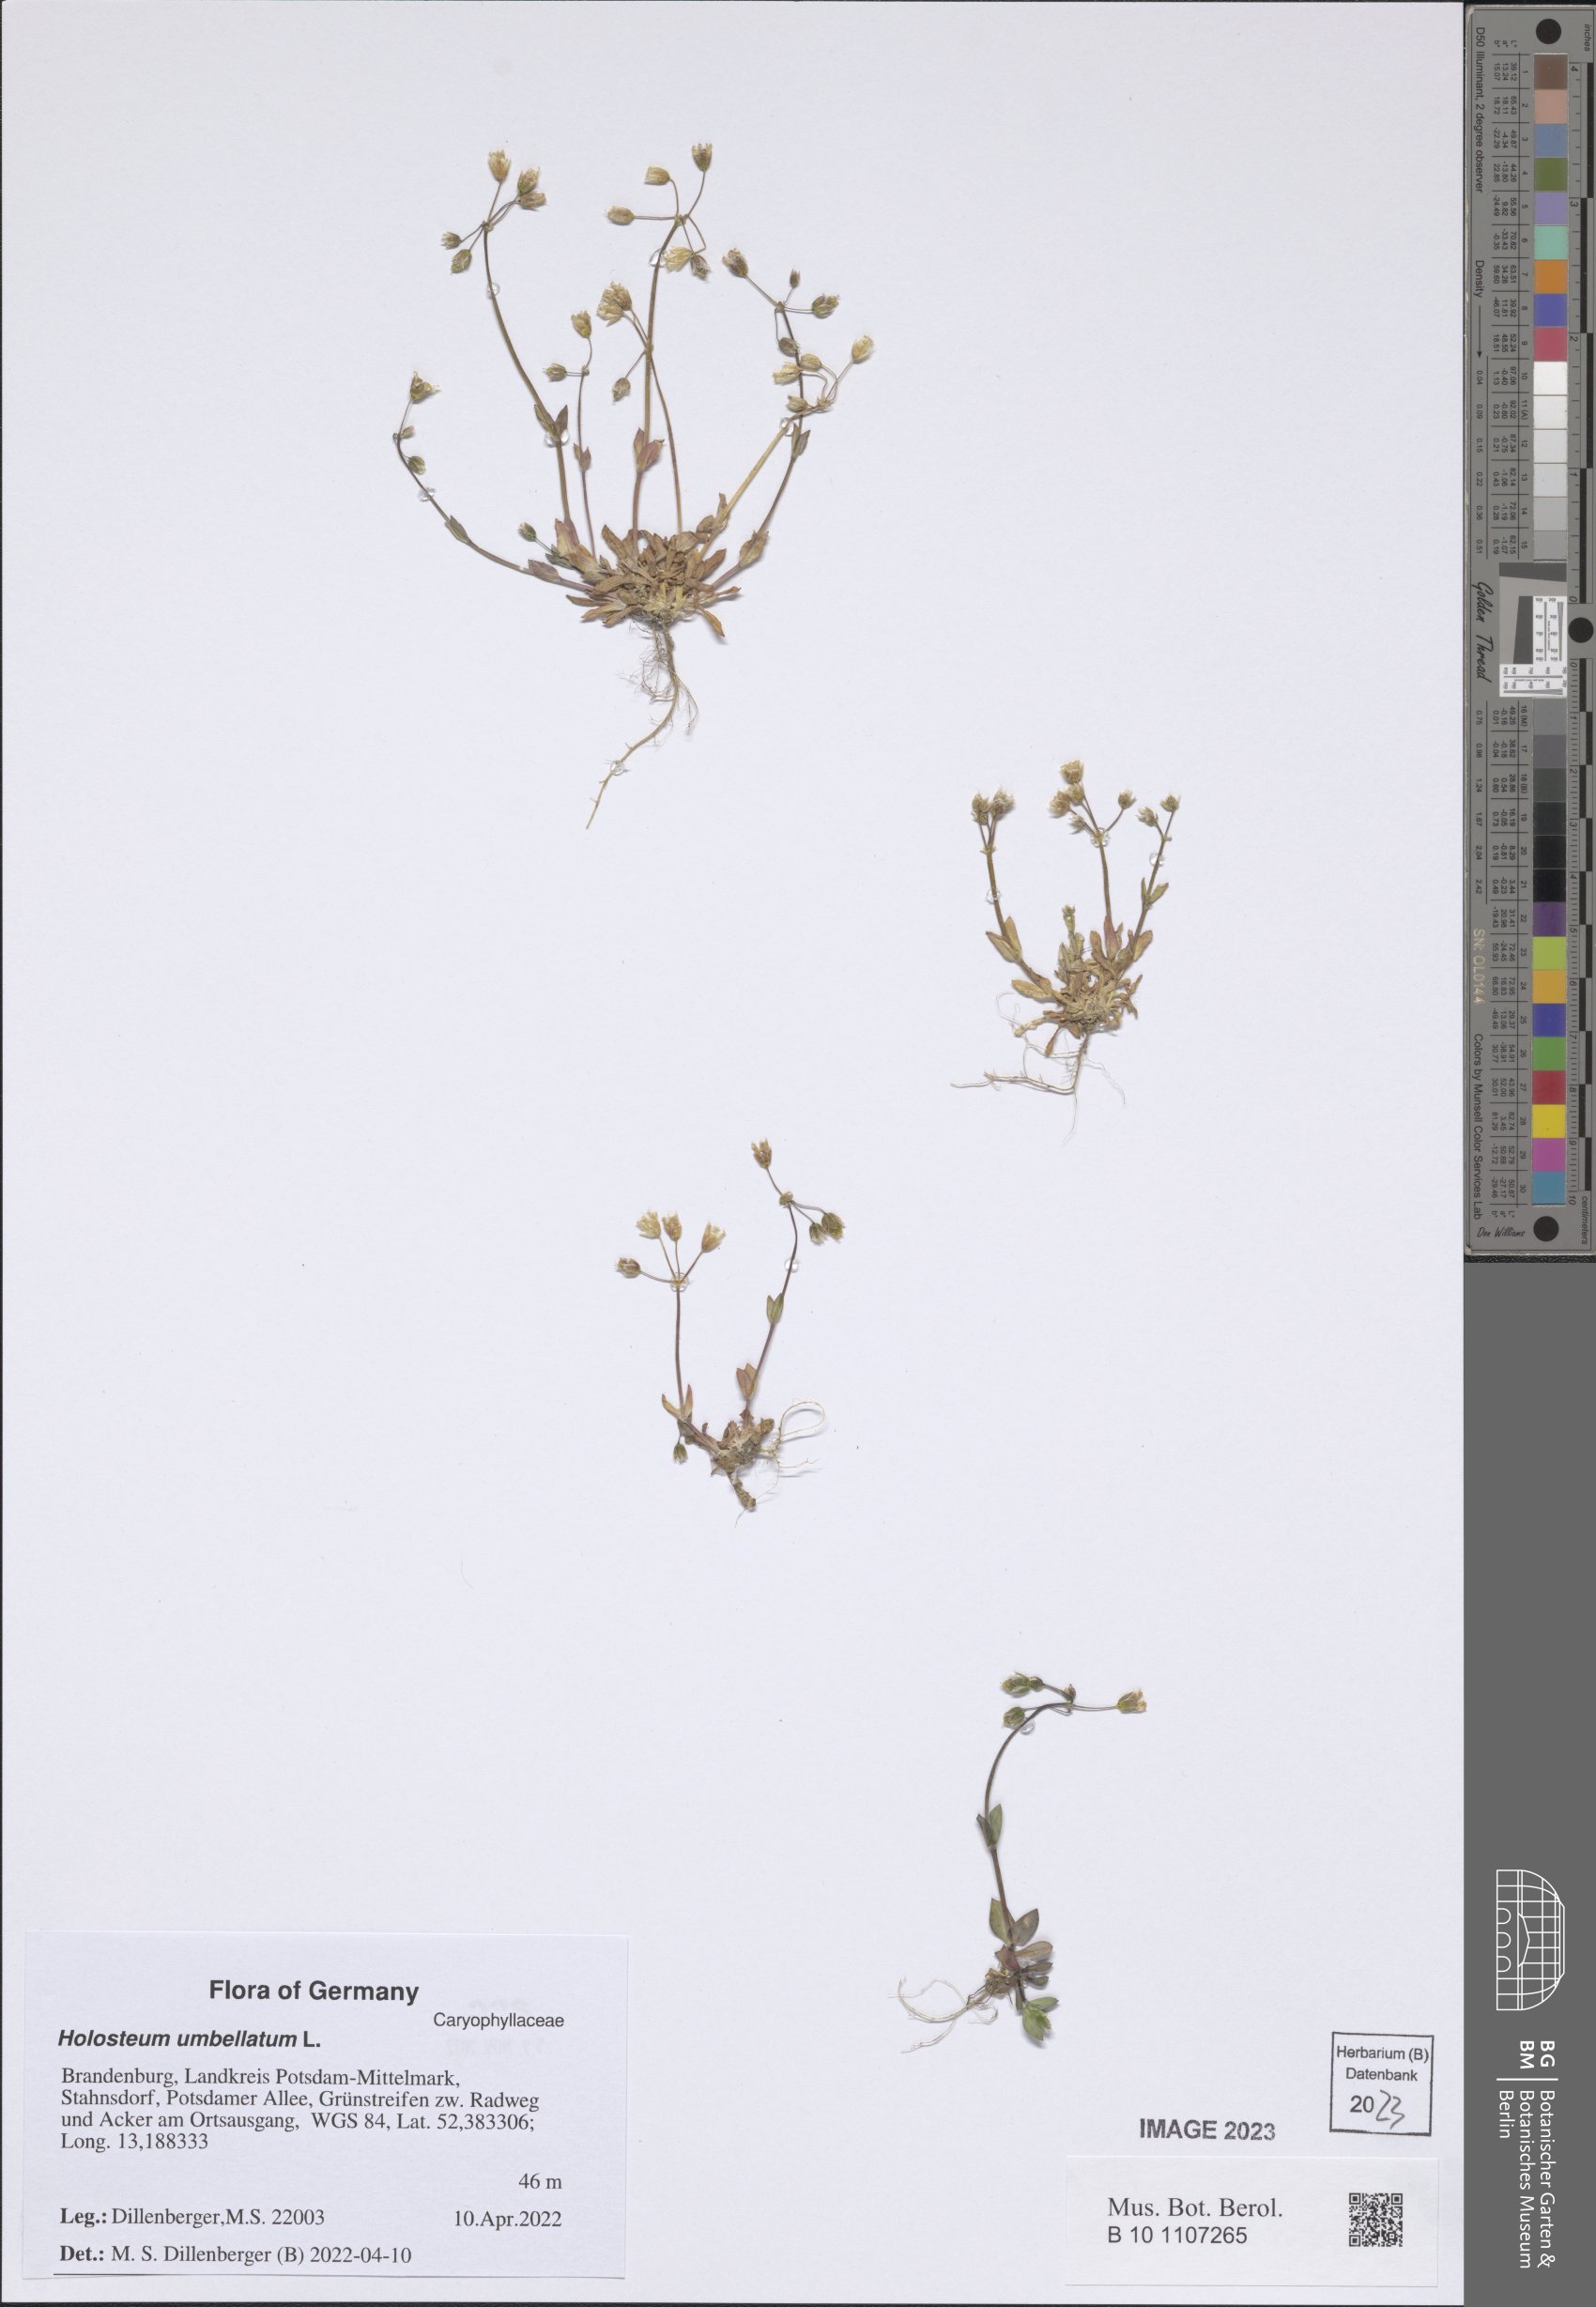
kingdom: Plantae
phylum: Tracheophyta
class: Magnoliopsida
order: Caryophyllales
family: Caryophyllaceae
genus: Holosteum
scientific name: Holosteum umbellatum
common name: Jagged chickweed
